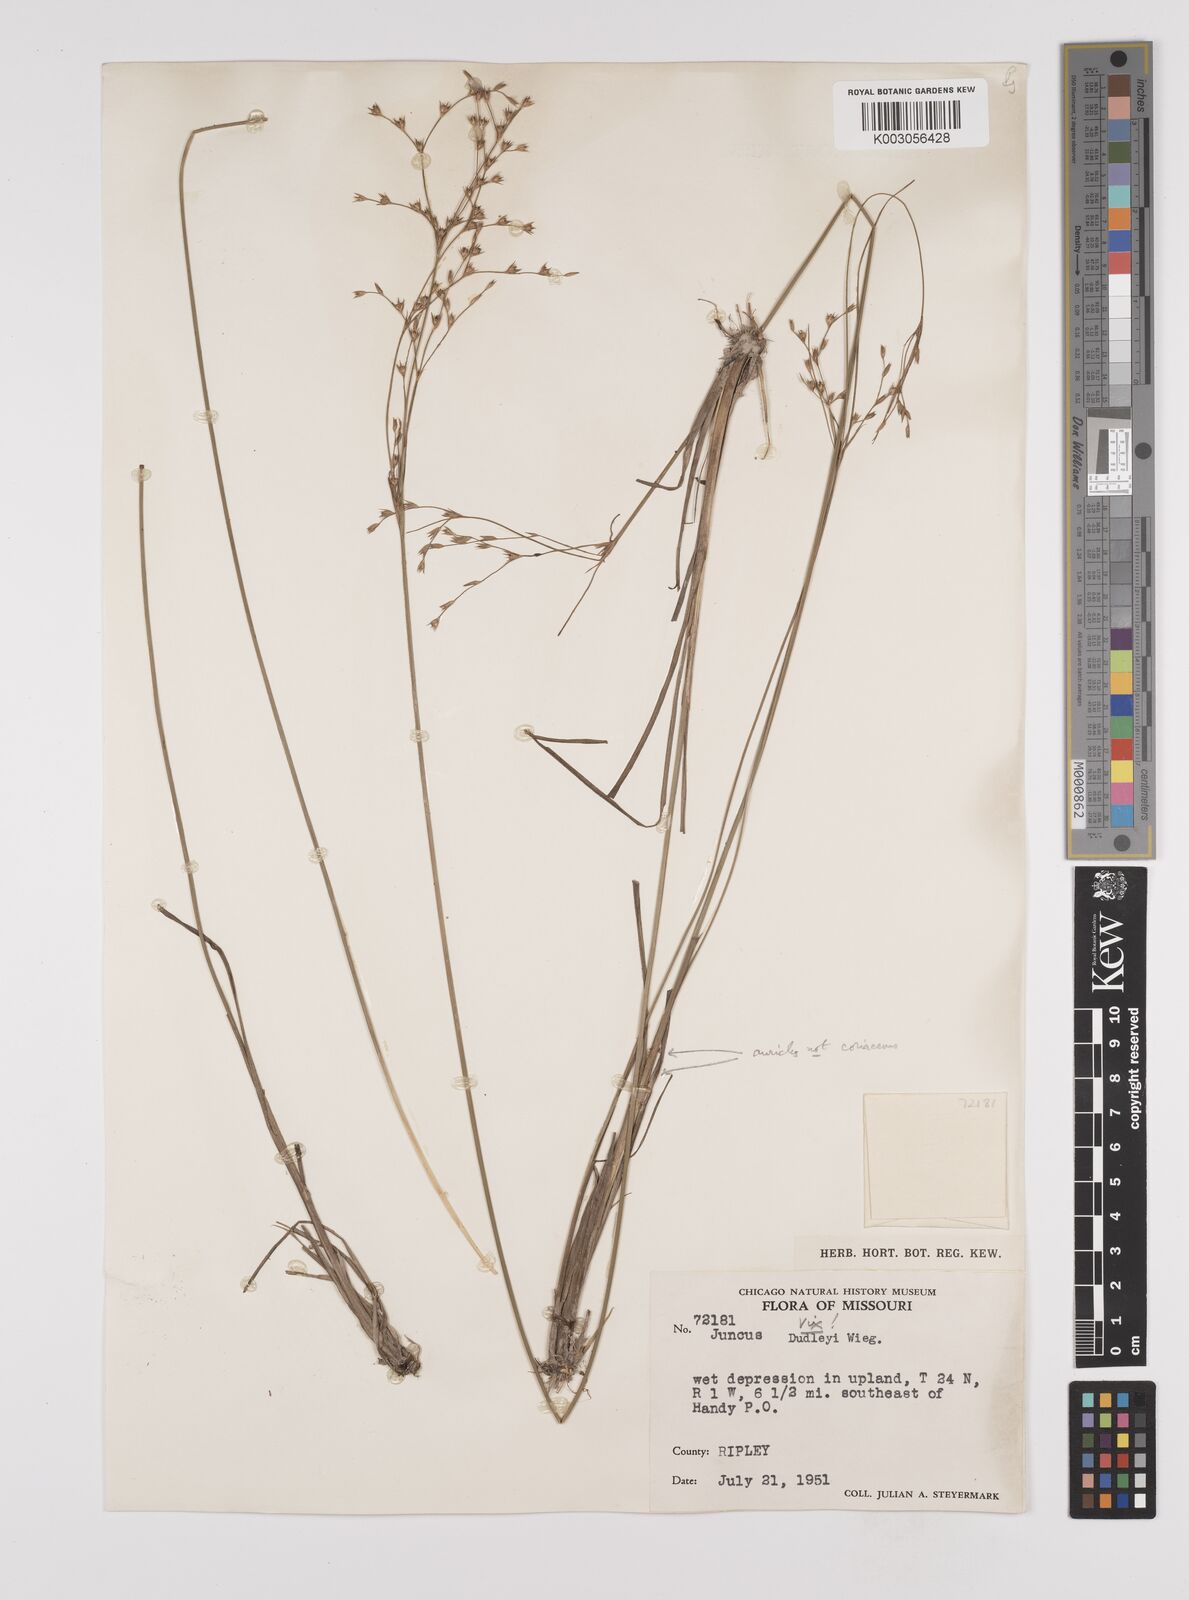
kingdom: Plantae
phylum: Tracheophyta
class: Liliopsida
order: Poales
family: Juncaceae
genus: Juncus
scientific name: Juncus anthelatus
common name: Giant path rush
